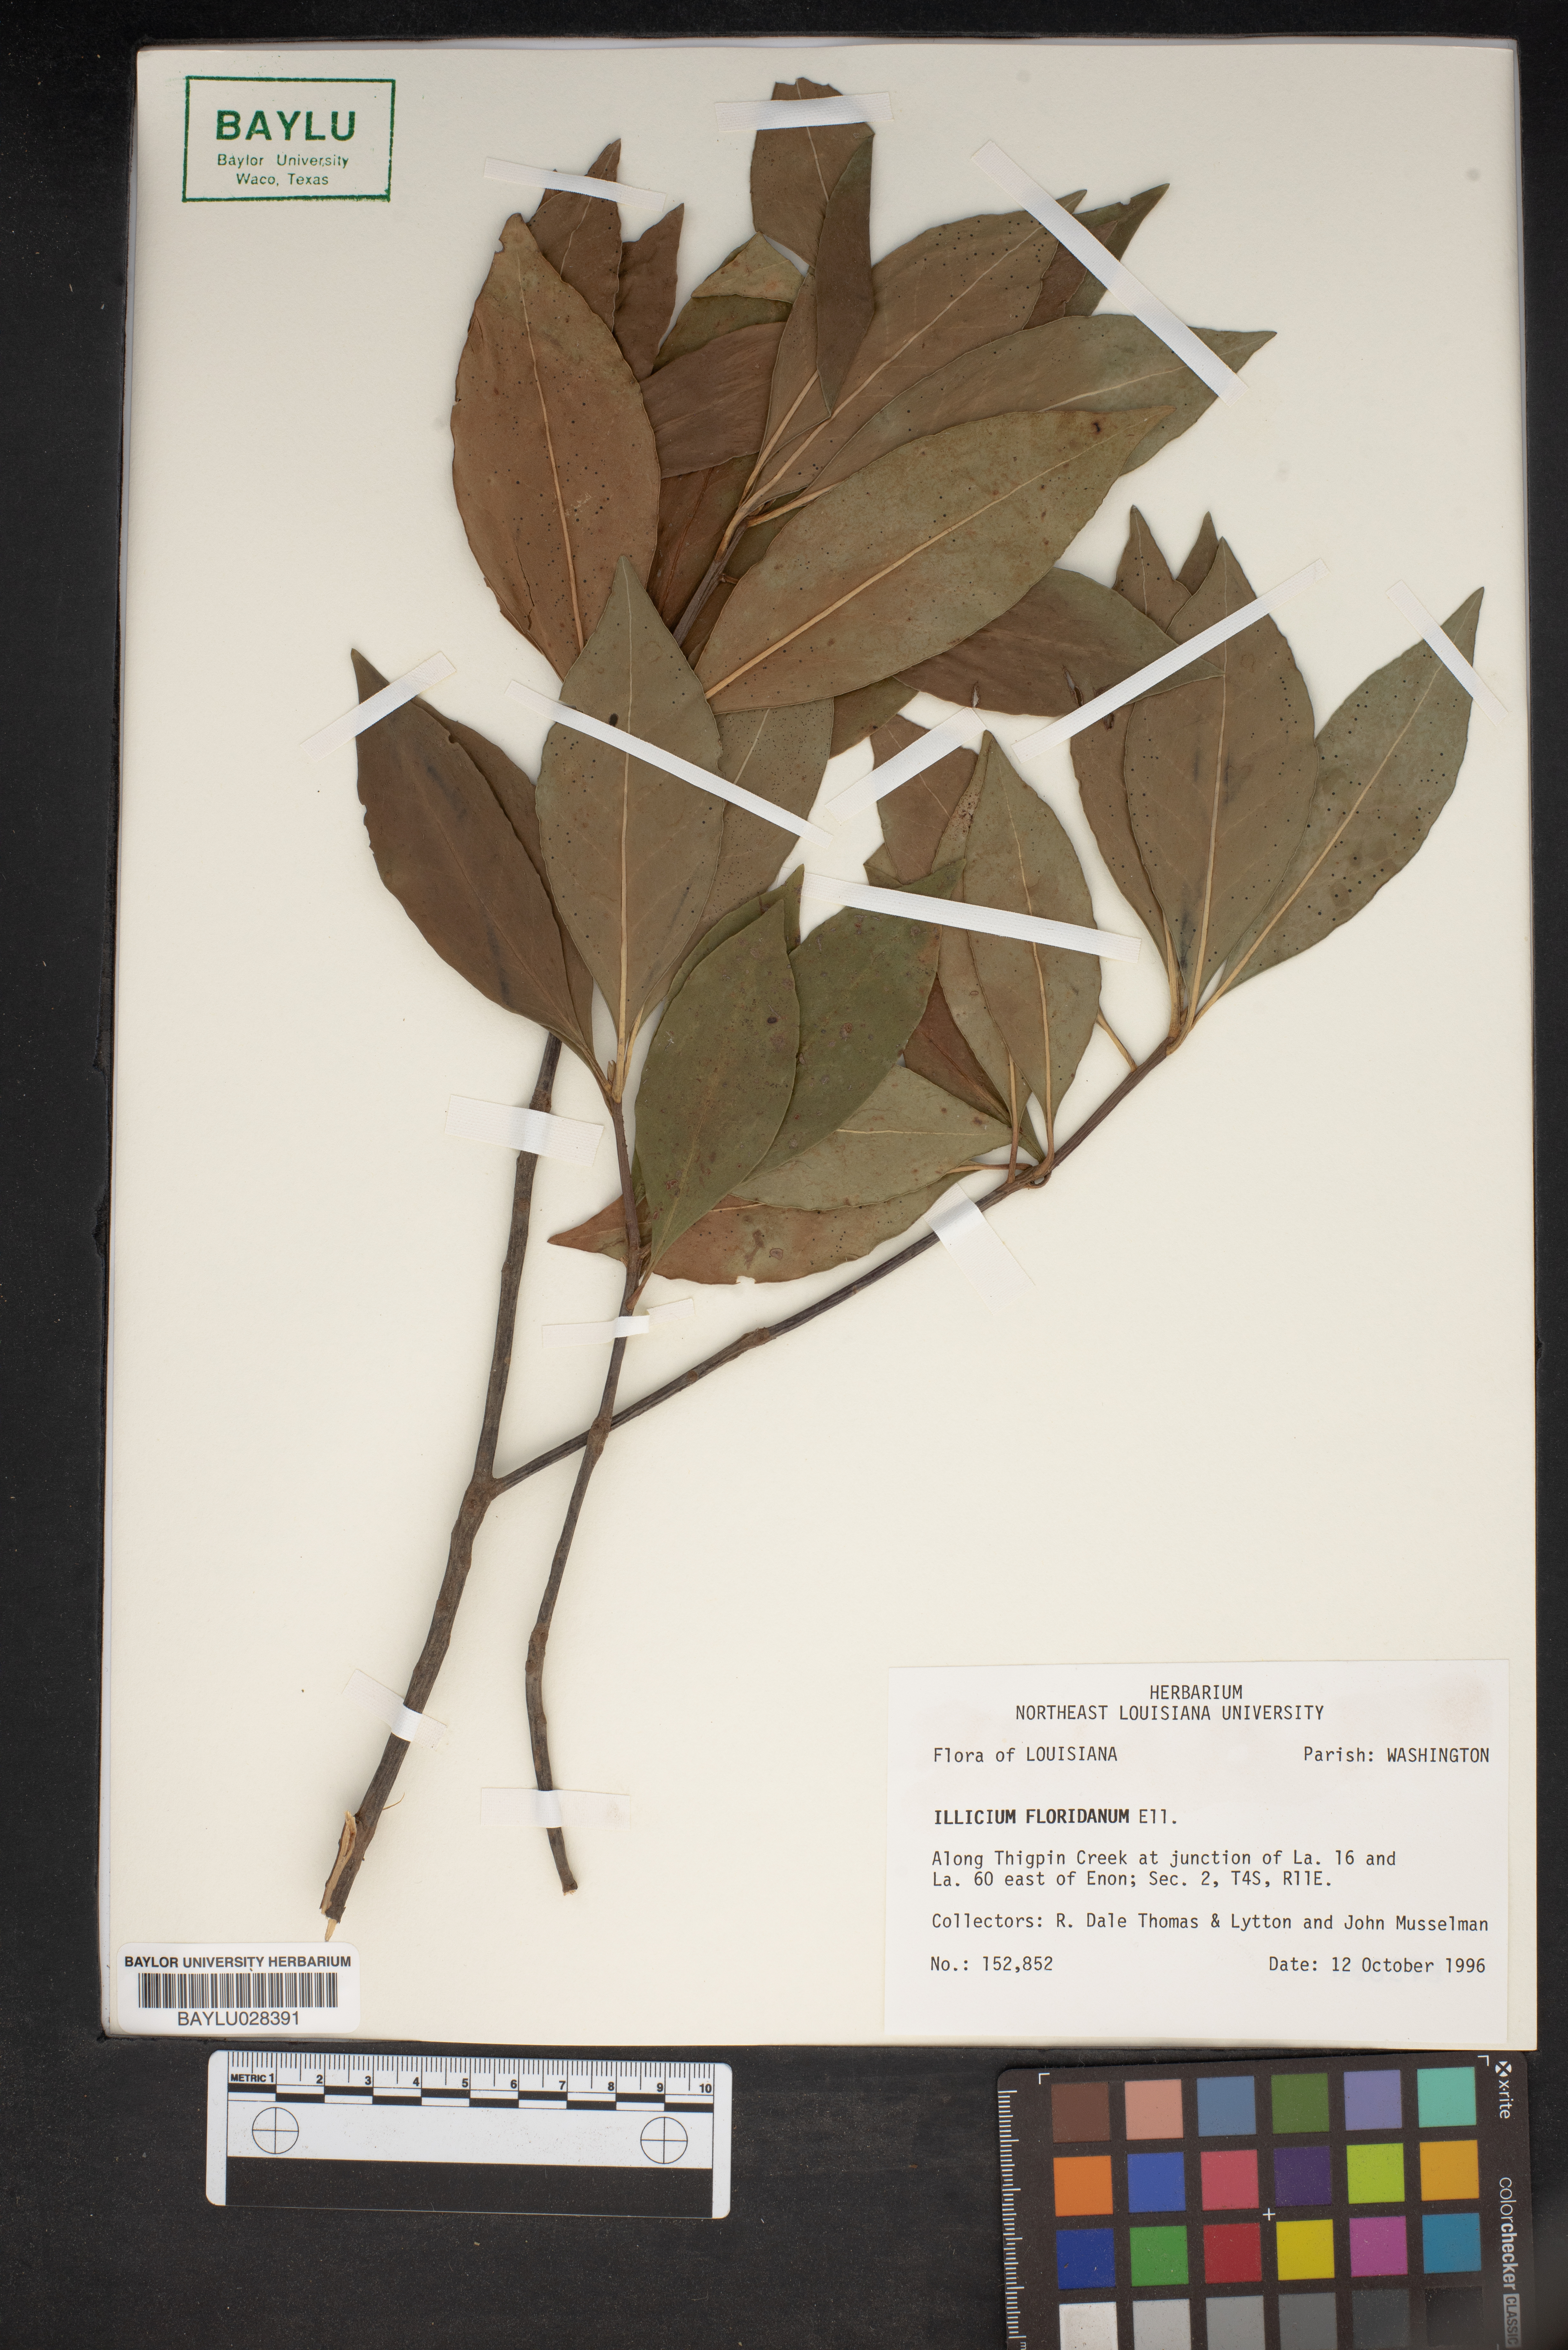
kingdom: Plantae
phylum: Tracheophyta
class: Magnoliopsida
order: Austrobaileyales
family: Schisandraceae
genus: Illicium
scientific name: Illicium floridanum
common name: Florida anisetree
